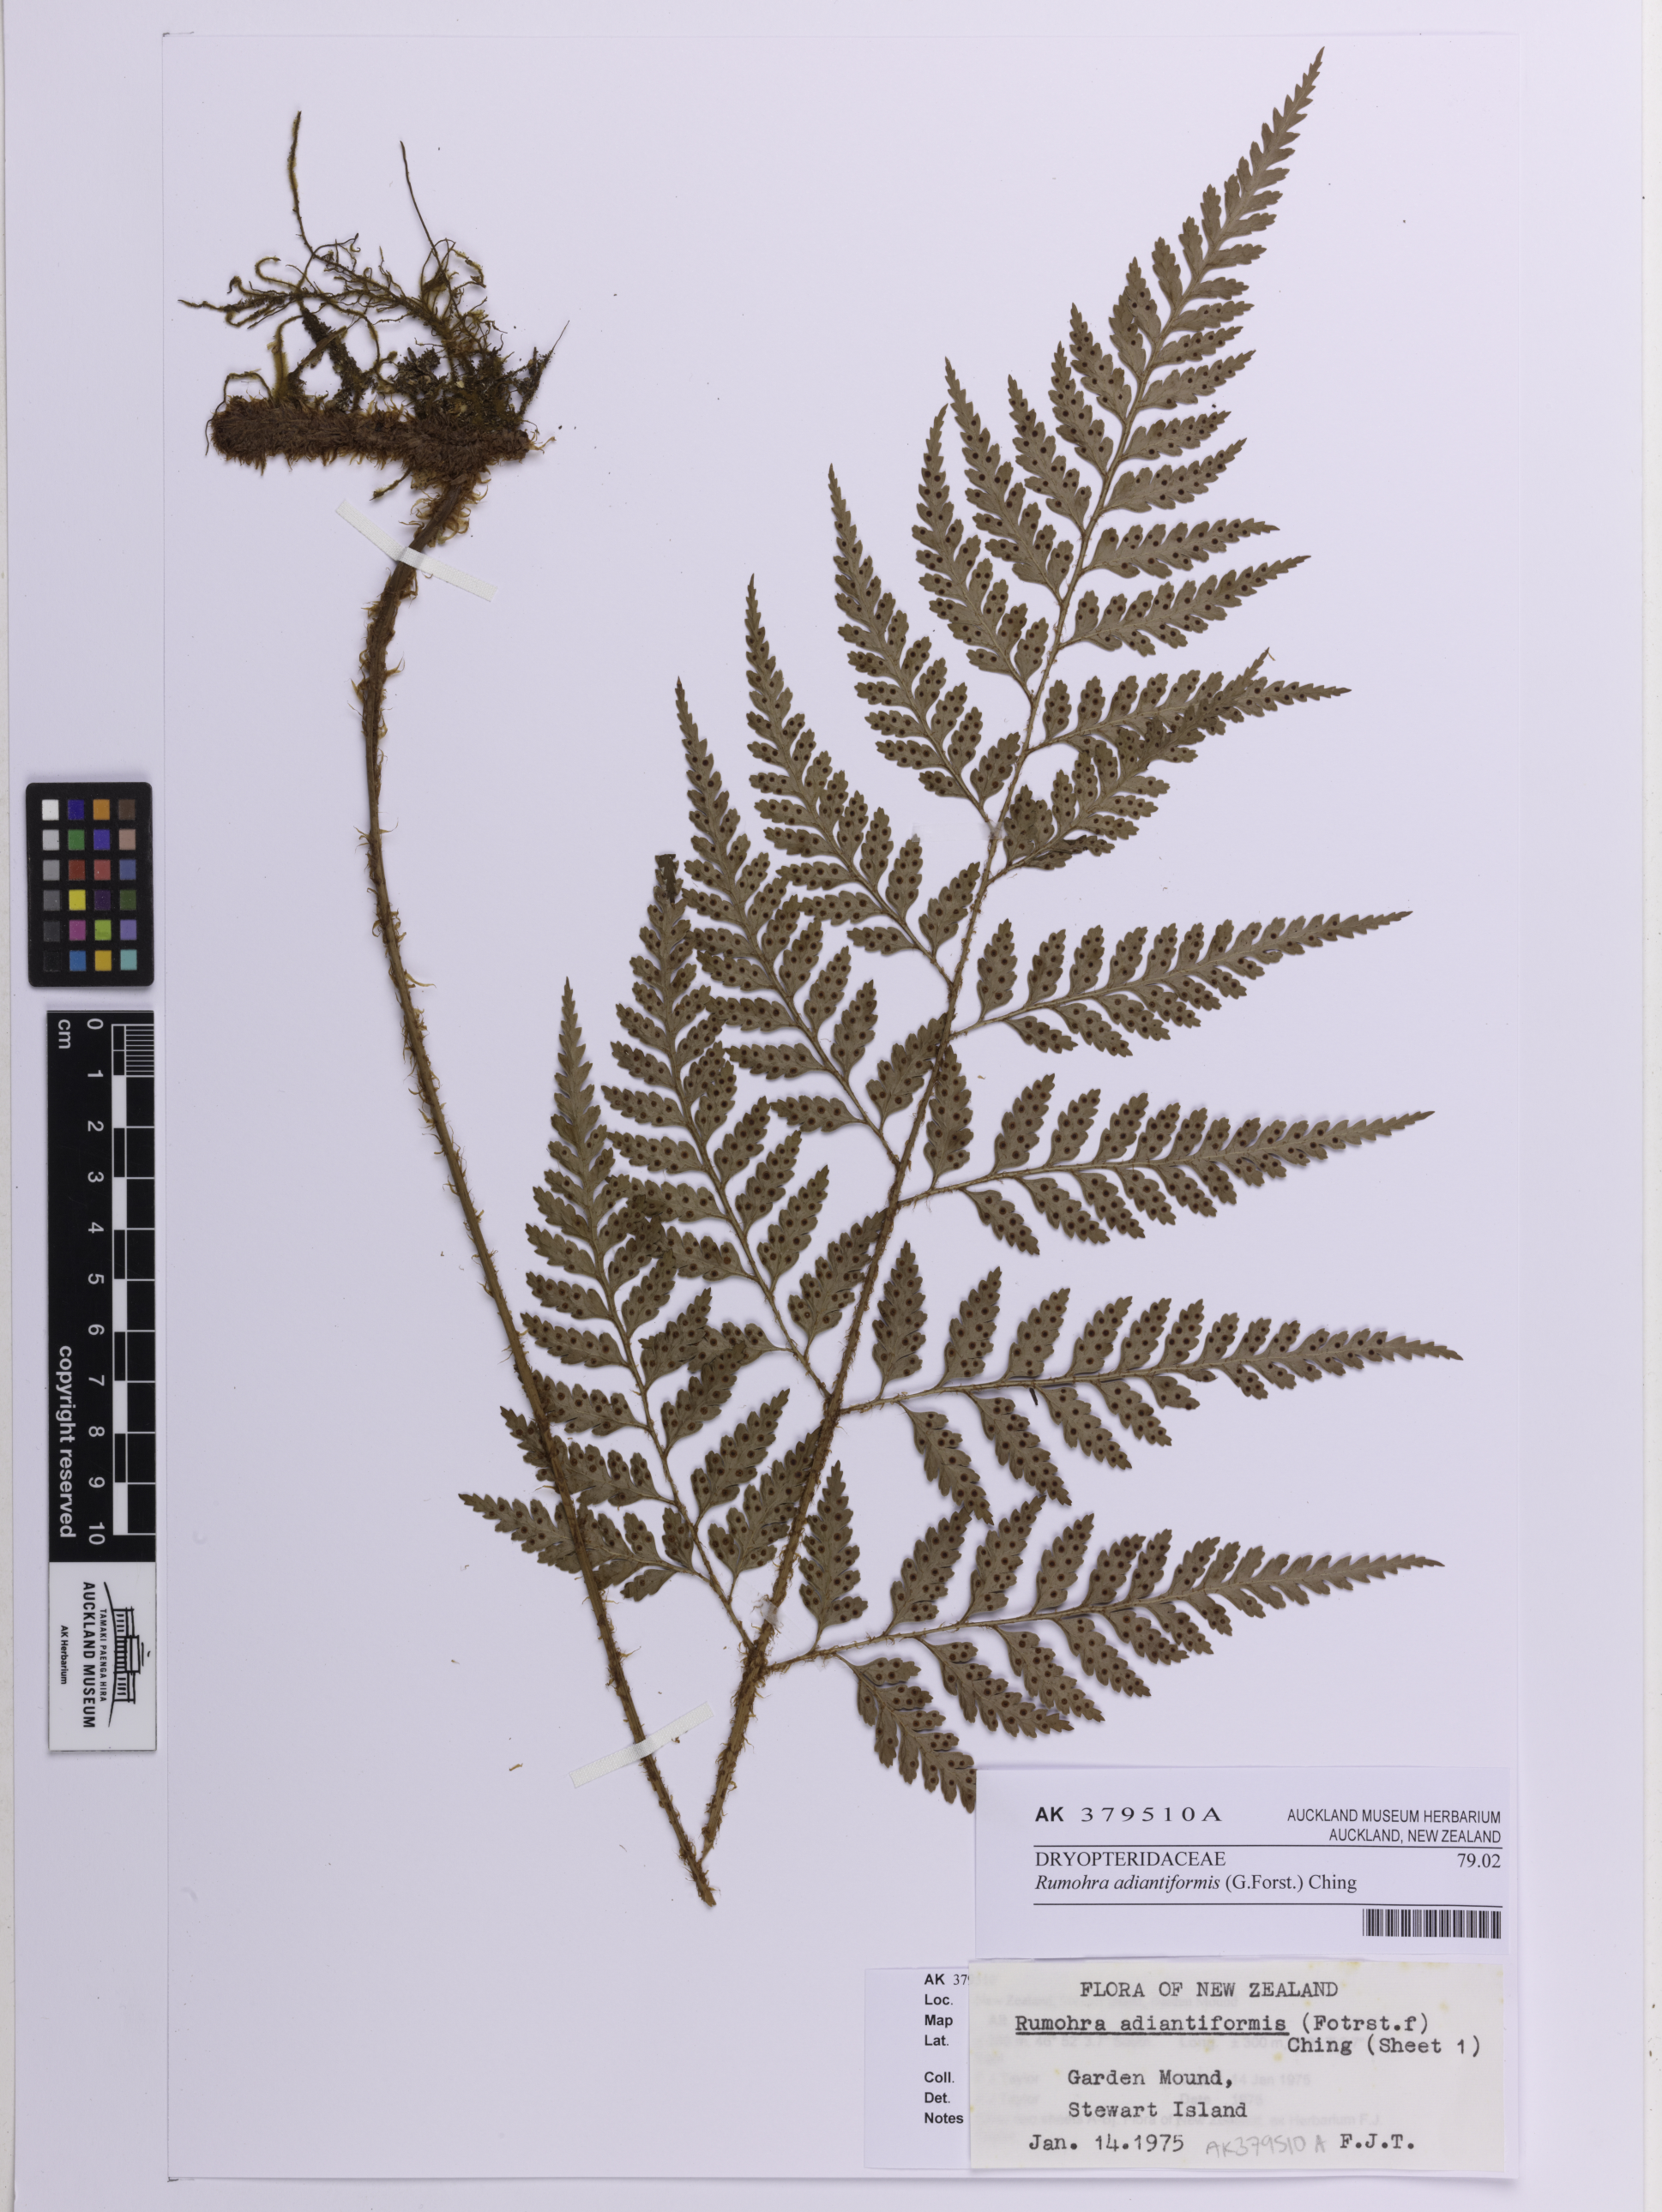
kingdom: Plantae
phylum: Tracheophyta
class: Polypodiopsida
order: Polypodiales
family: Dryopteridaceae
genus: Rumohra
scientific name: Rumohra adiantiformis
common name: Leather fern
